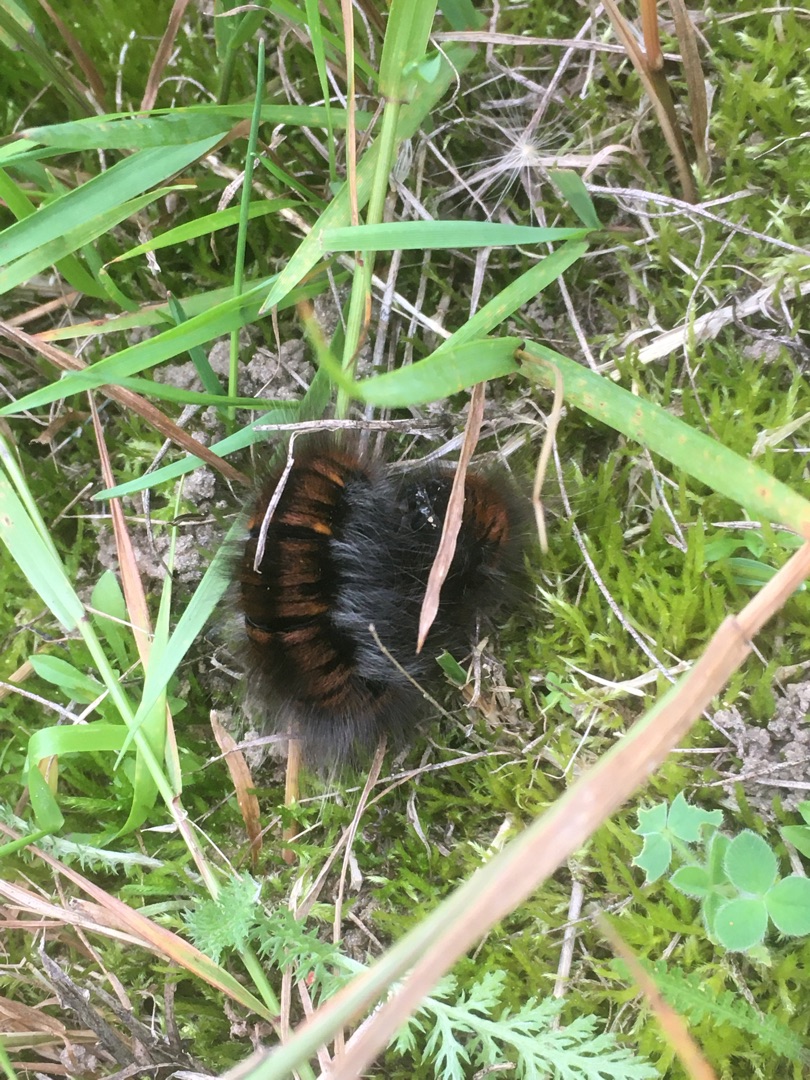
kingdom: Animalia
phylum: Arthropoda
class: Insecta
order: Lepidoptera
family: Lasiocampidae
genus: Macrothylacia
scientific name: Macrothylacia rubi
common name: Brombærspinder
